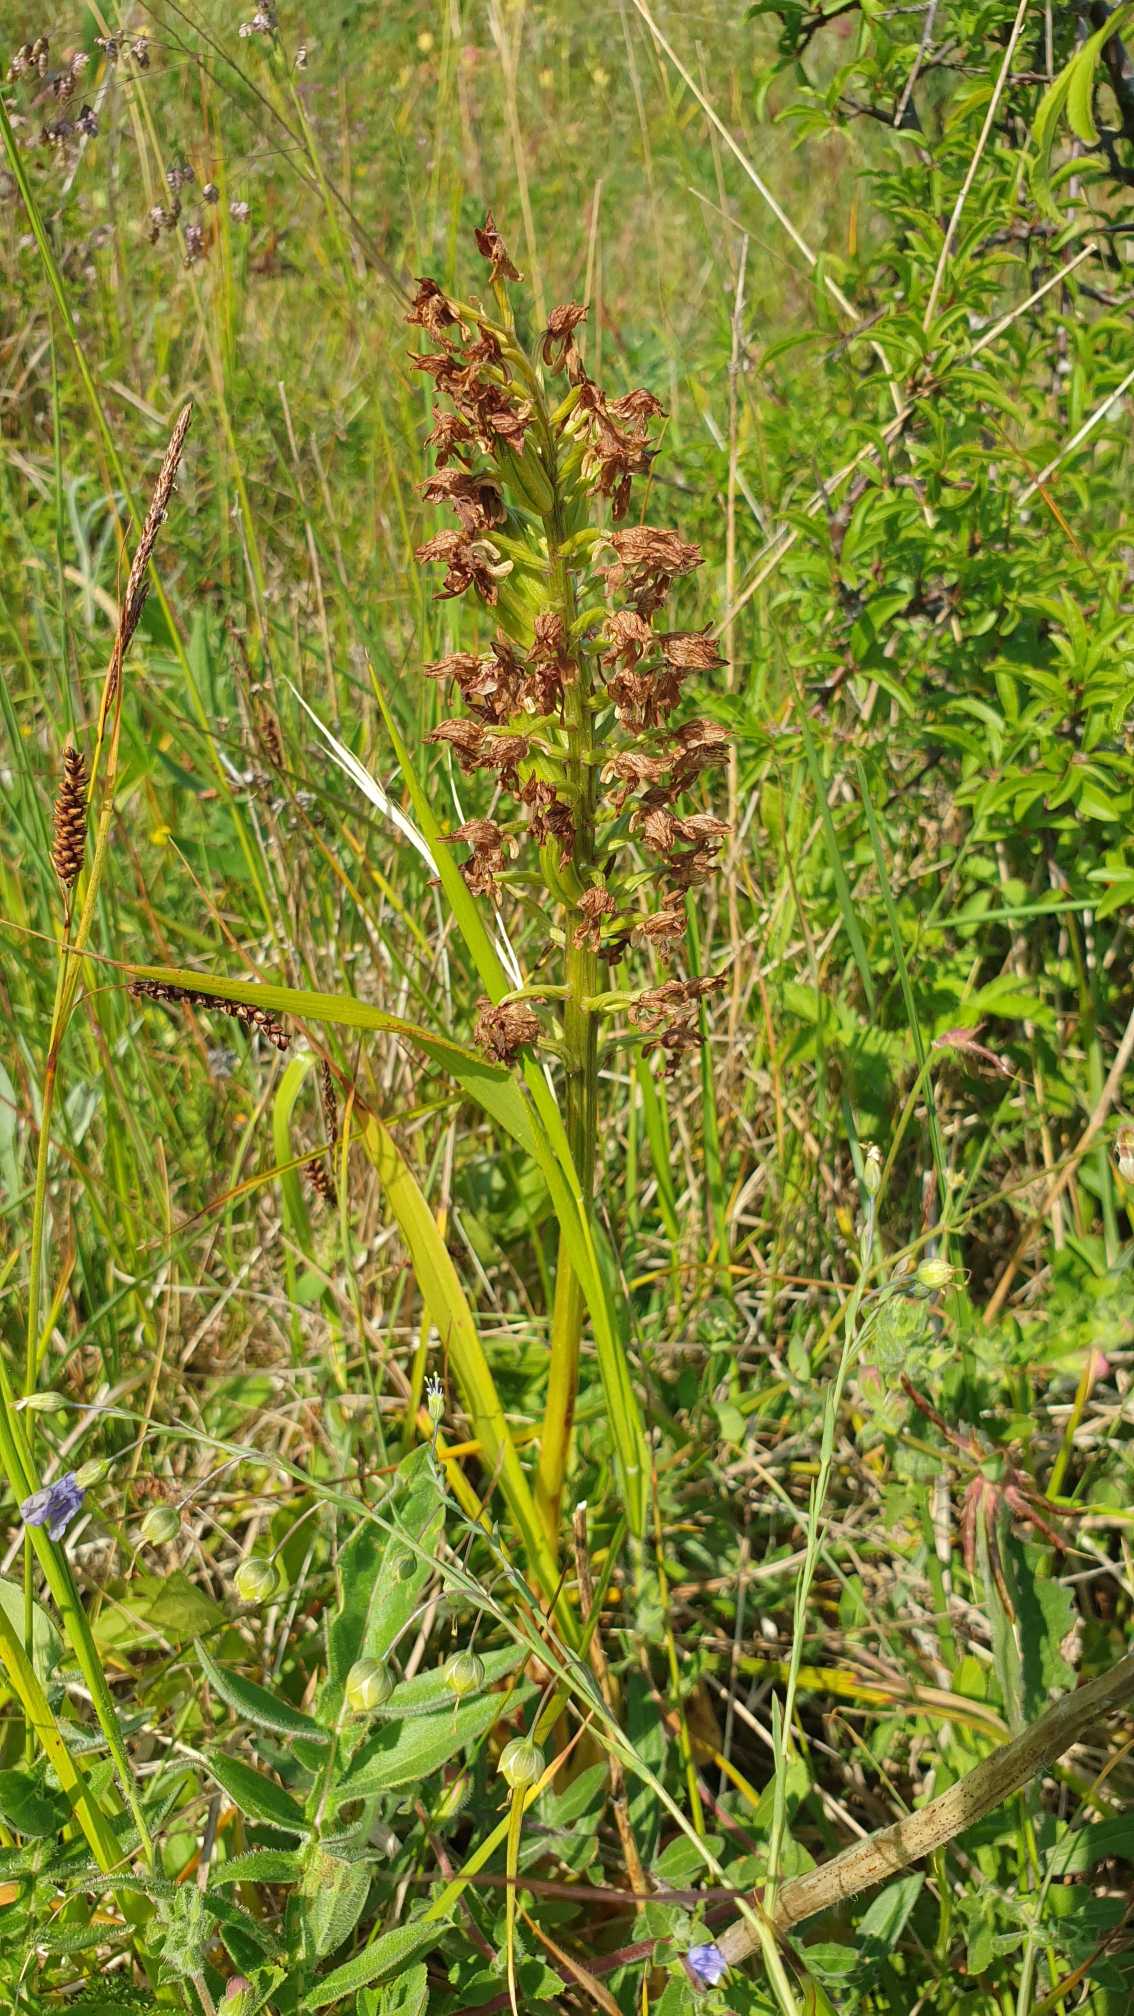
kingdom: Plantae
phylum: Tracheophyta
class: Liliopsida
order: Asparagales
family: Orchidaceae
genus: Orchis
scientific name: Orchis purpurea
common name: Stor gøgeurt
